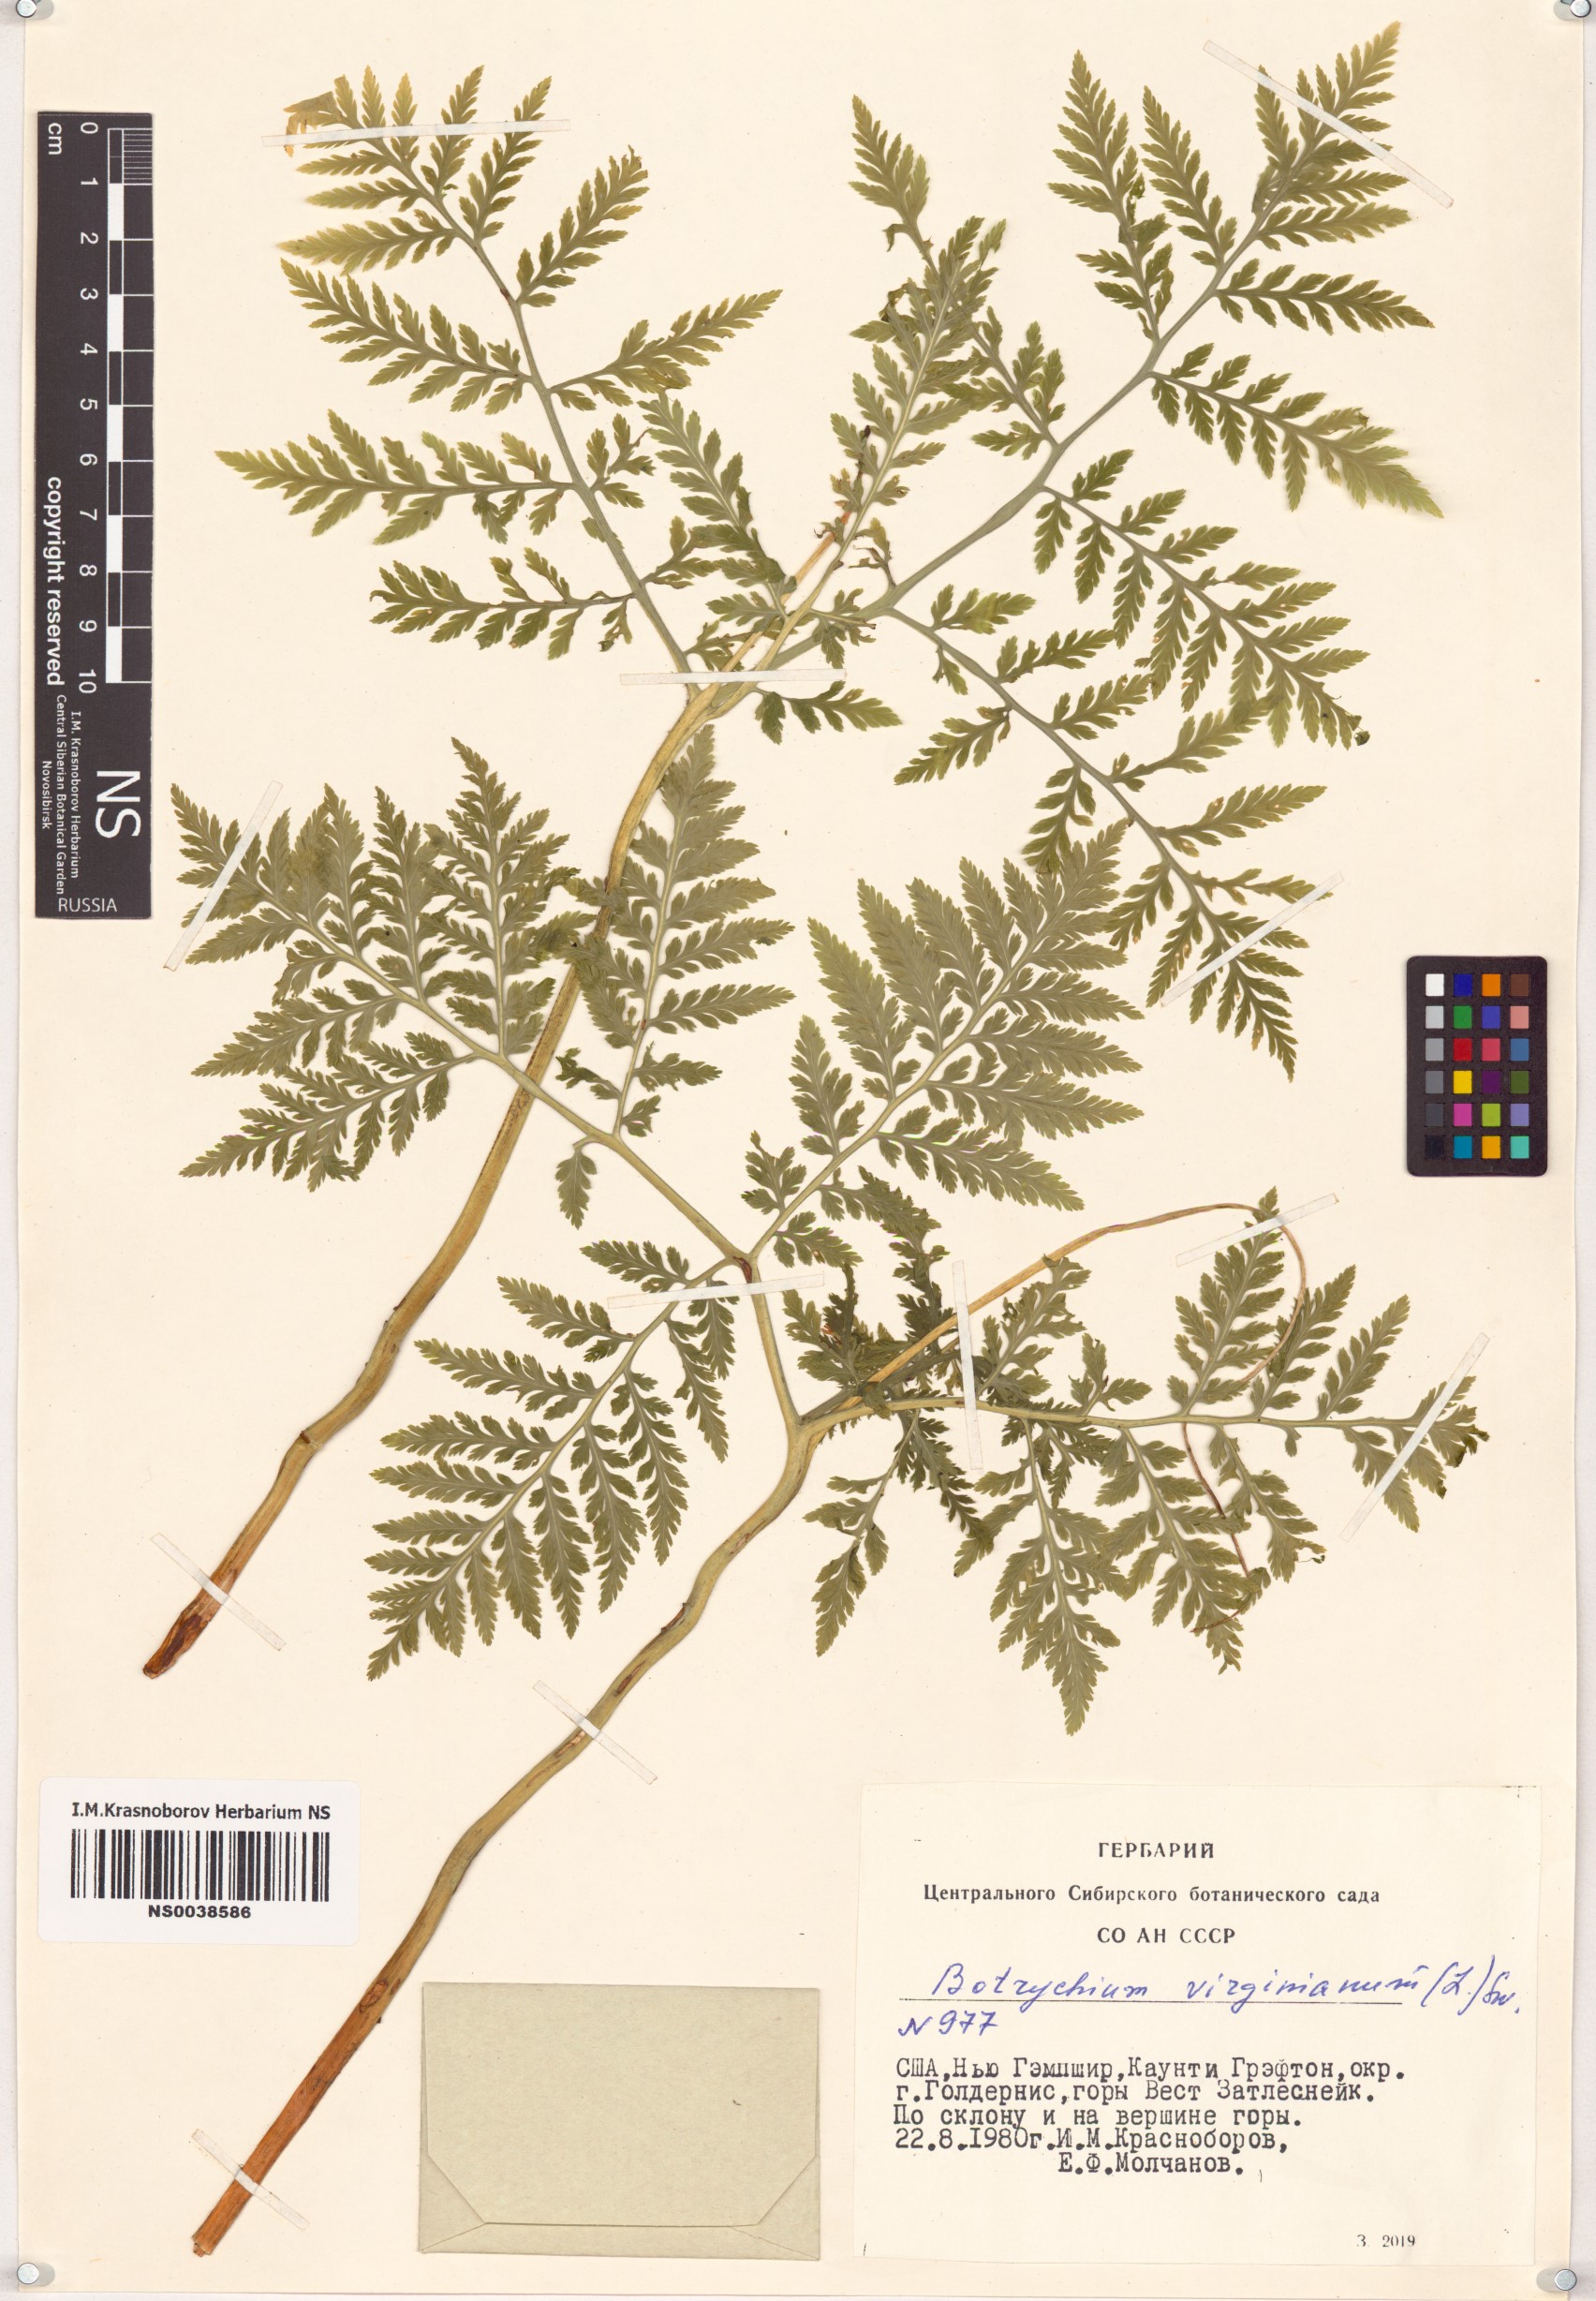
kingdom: Plantae
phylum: Tracheophyta
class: Polypodiopsida
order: Ophioglossales
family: Ophioglossaceae
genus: Botrypus
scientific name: Botrypus virginianus
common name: Common grapefern
